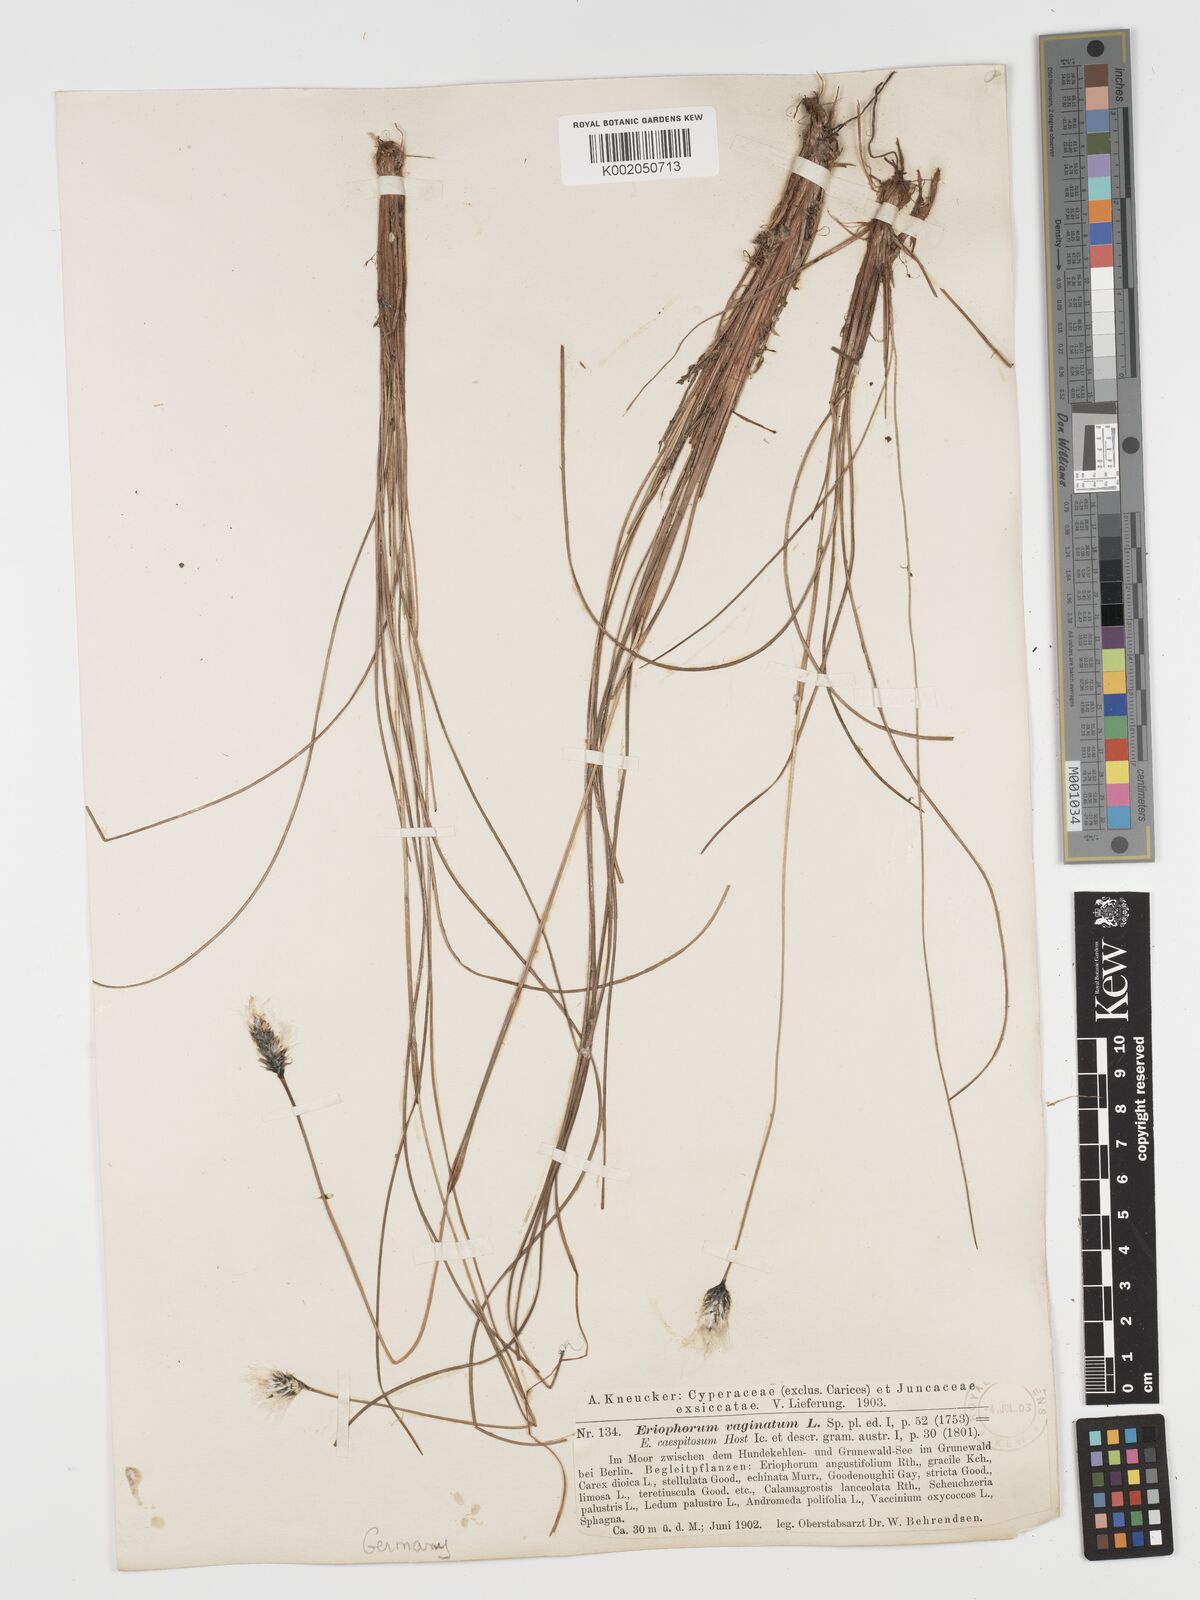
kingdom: Plantae
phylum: Tracheophyta
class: Liliopsida
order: Poales
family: Cyperaceae
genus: Eriophorum
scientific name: Eriophorum vaginatum
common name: Hare's-tail cottongrass
